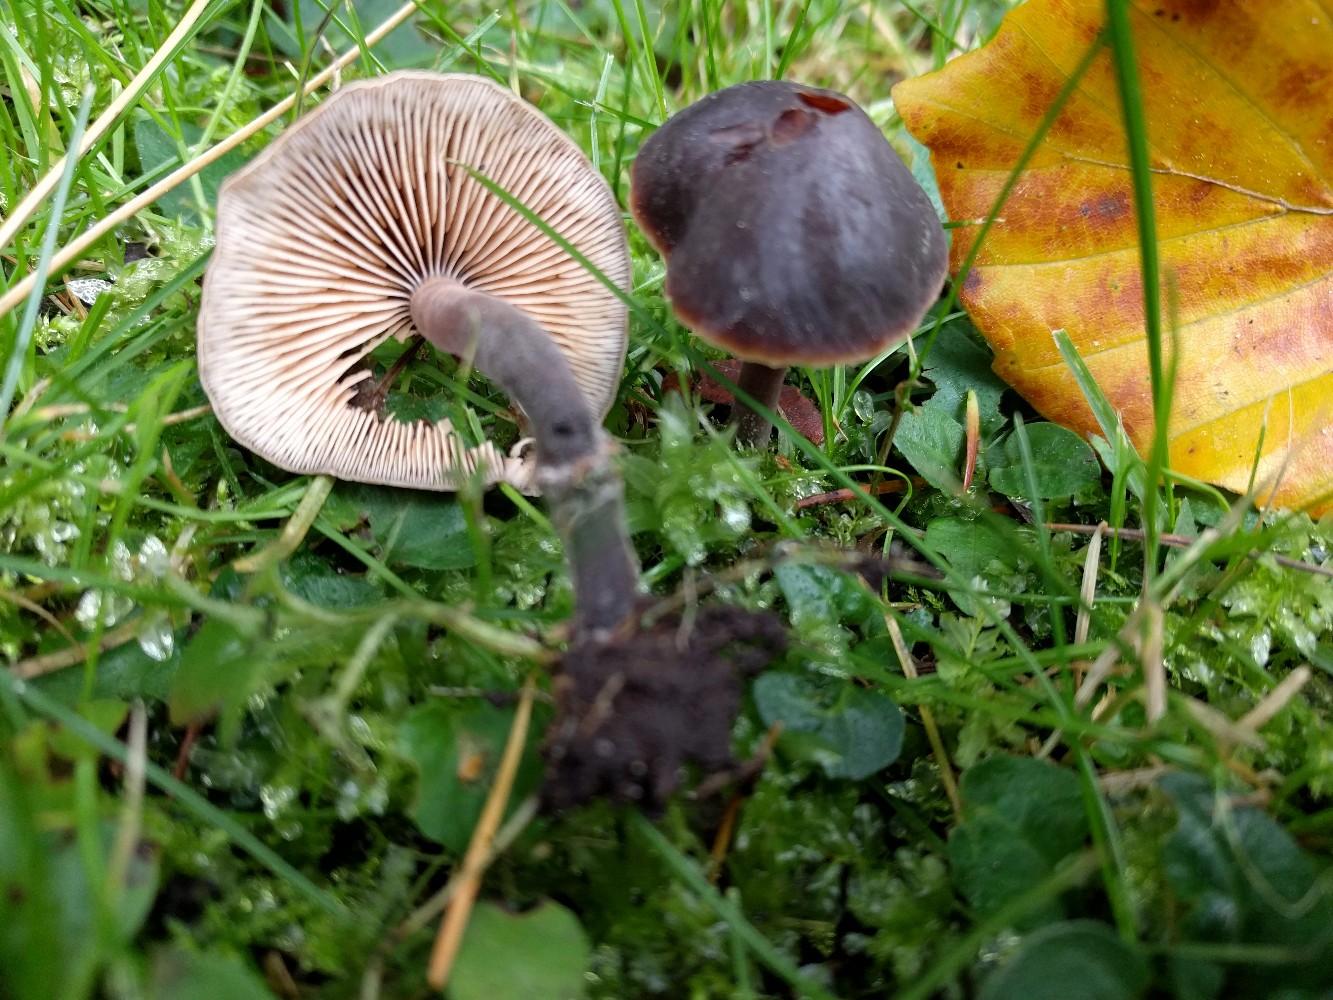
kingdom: Fungi
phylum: Basidiomycota
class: Agaricomycetes
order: Agaricales
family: Macrocystidiaceae
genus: Macrocystidia
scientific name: Macrocystidia cucumis
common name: agurkehat
